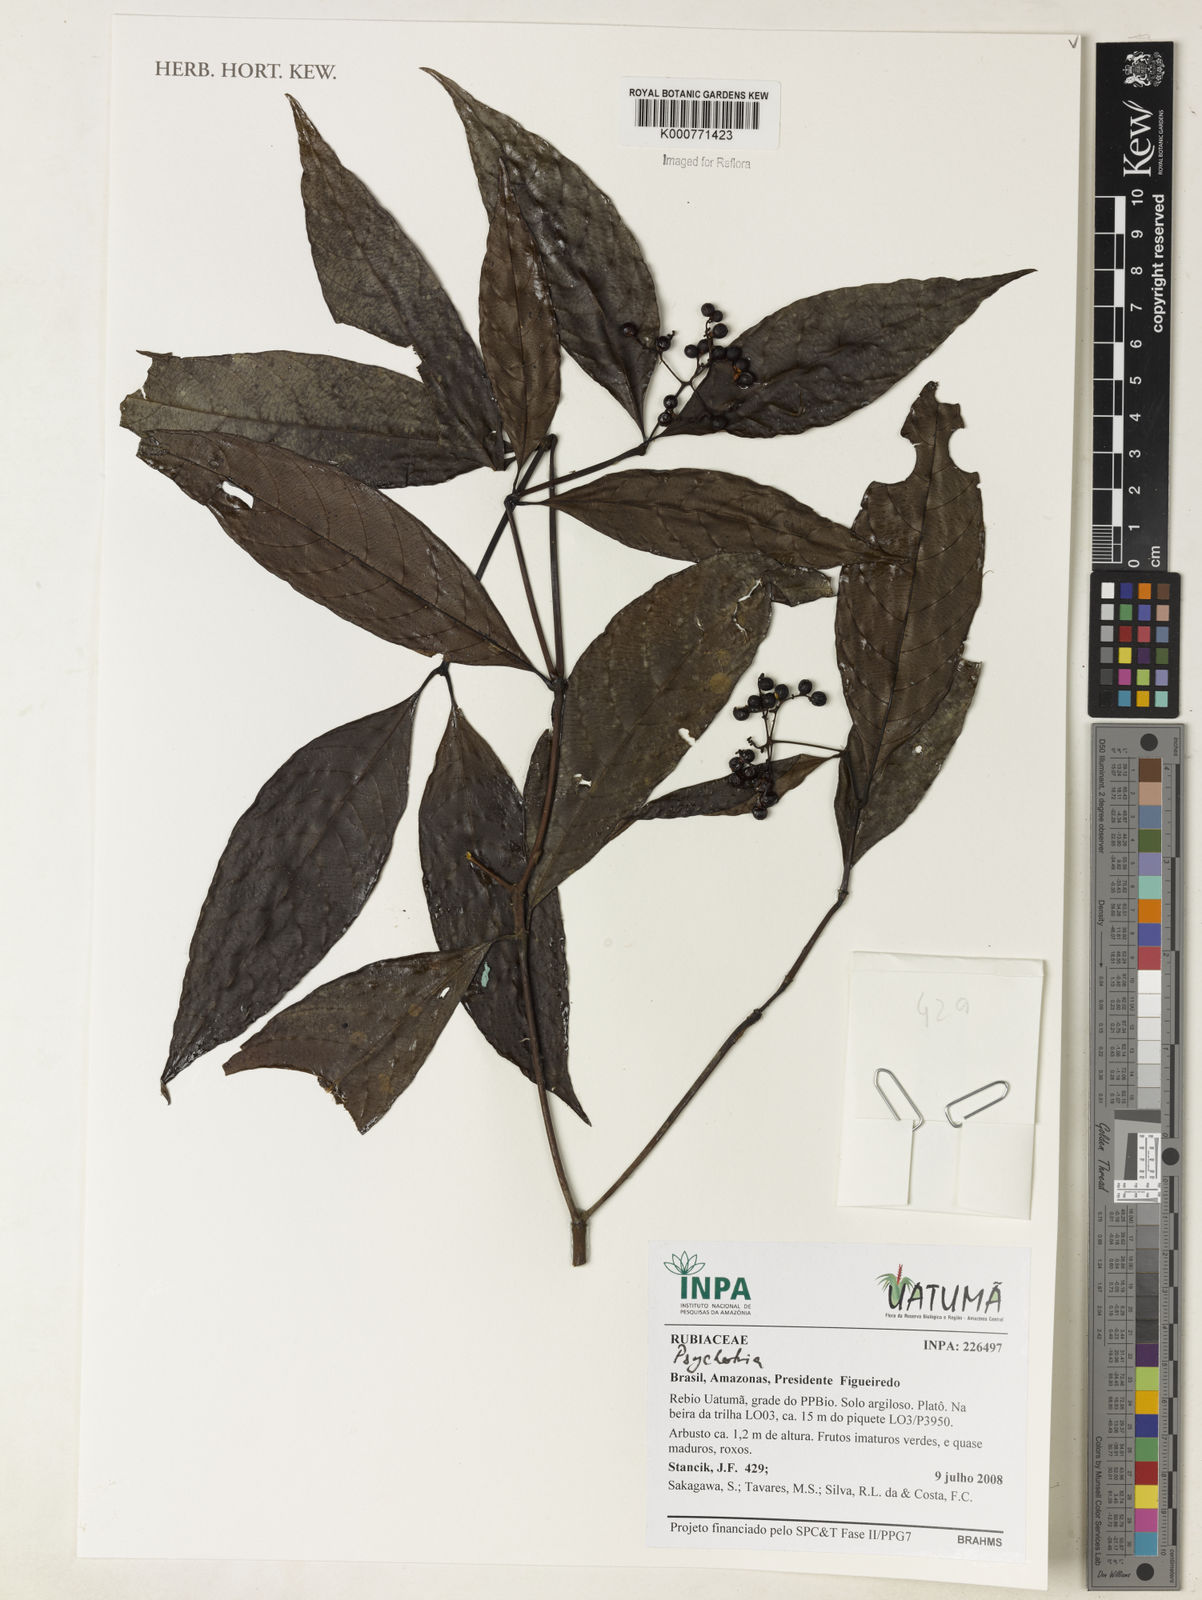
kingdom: Plantae
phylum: Tracheophyta
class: Magnoliopsida
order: Gentianales
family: Rubiaceae
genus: Psychotria
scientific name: Psychotria
